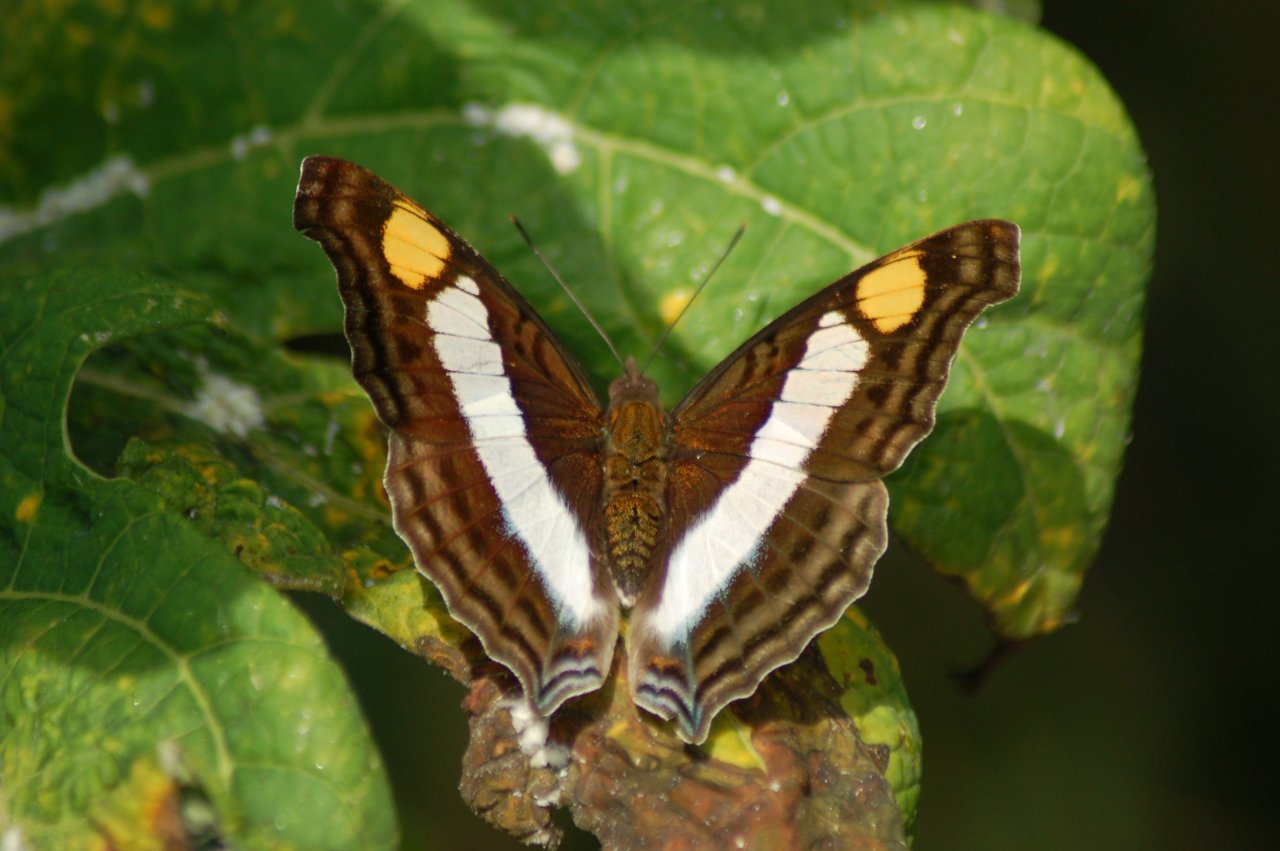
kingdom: Animalia
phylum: Arthropoda
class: Insecta
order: Lepidoptera
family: Nymphalidae
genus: Doxocopa
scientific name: Doxocopa laure
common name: Silver Emperor
